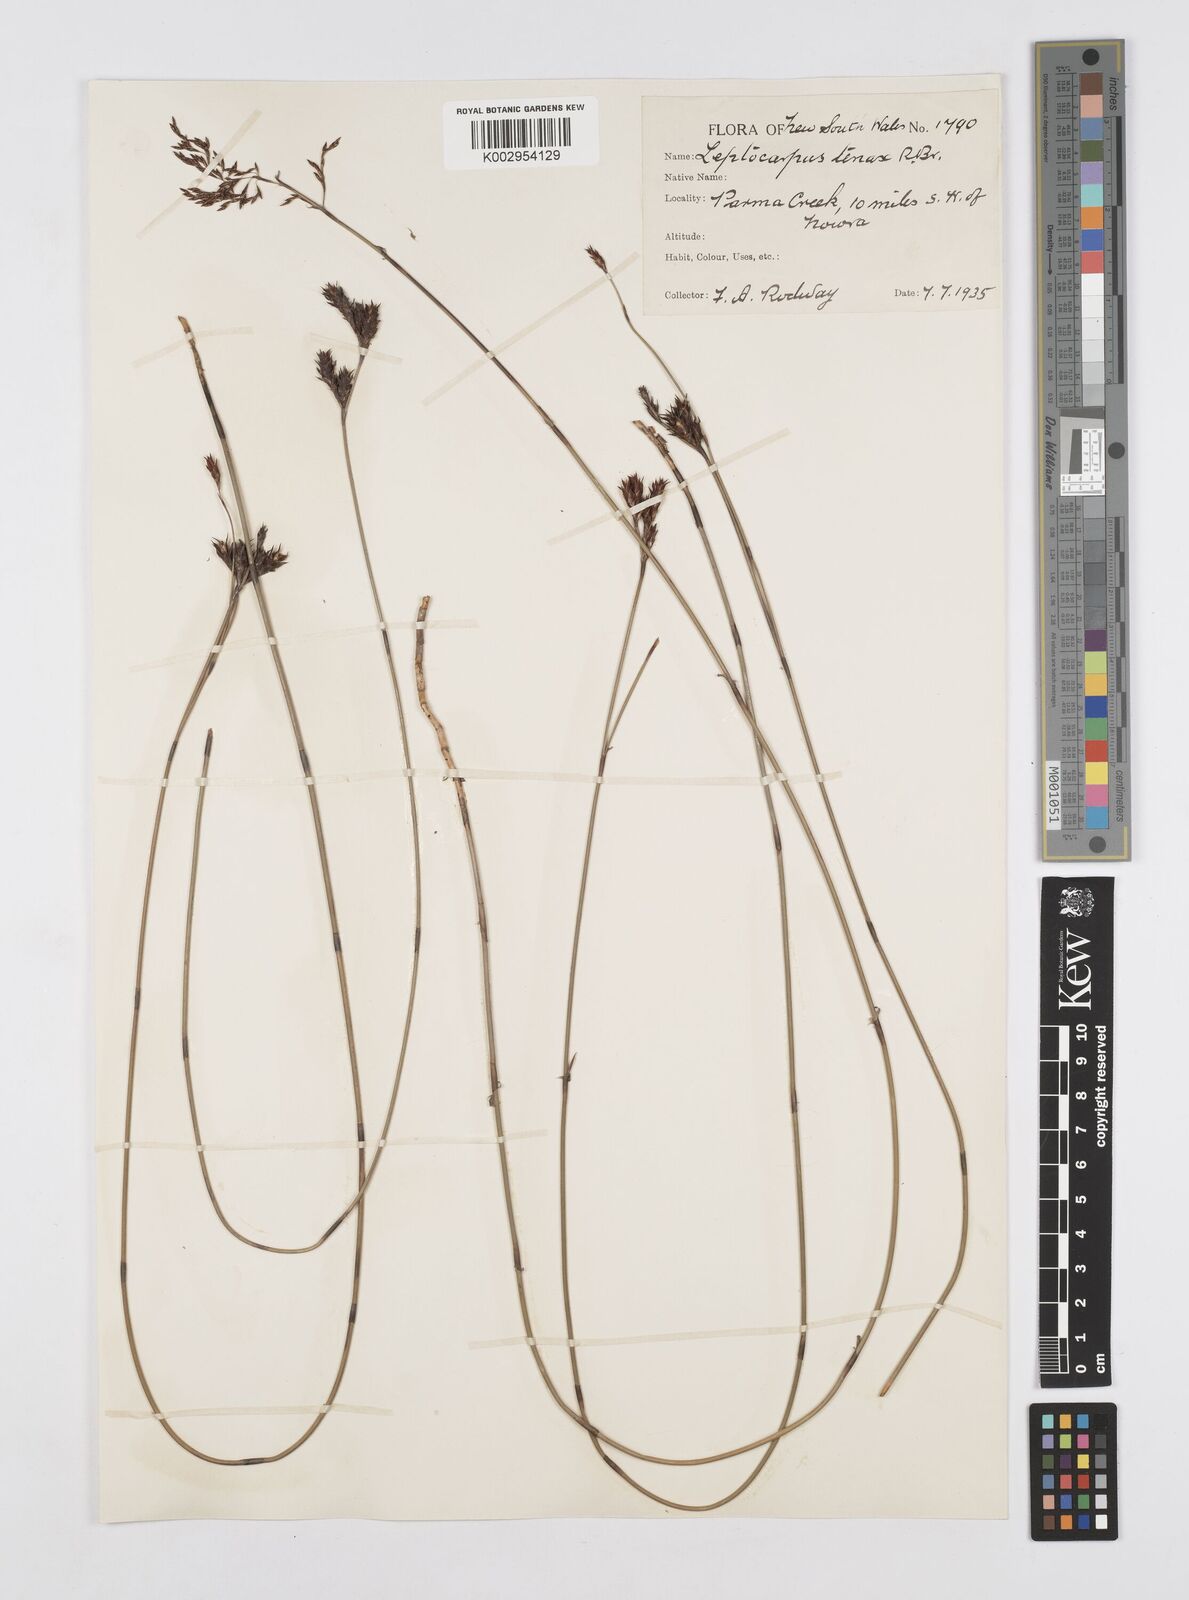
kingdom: Plantae
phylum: Tracheophyta
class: Liliopsida
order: Poales
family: Restionaceae
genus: Leptocarpus
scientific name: Leptocarpus tenax
